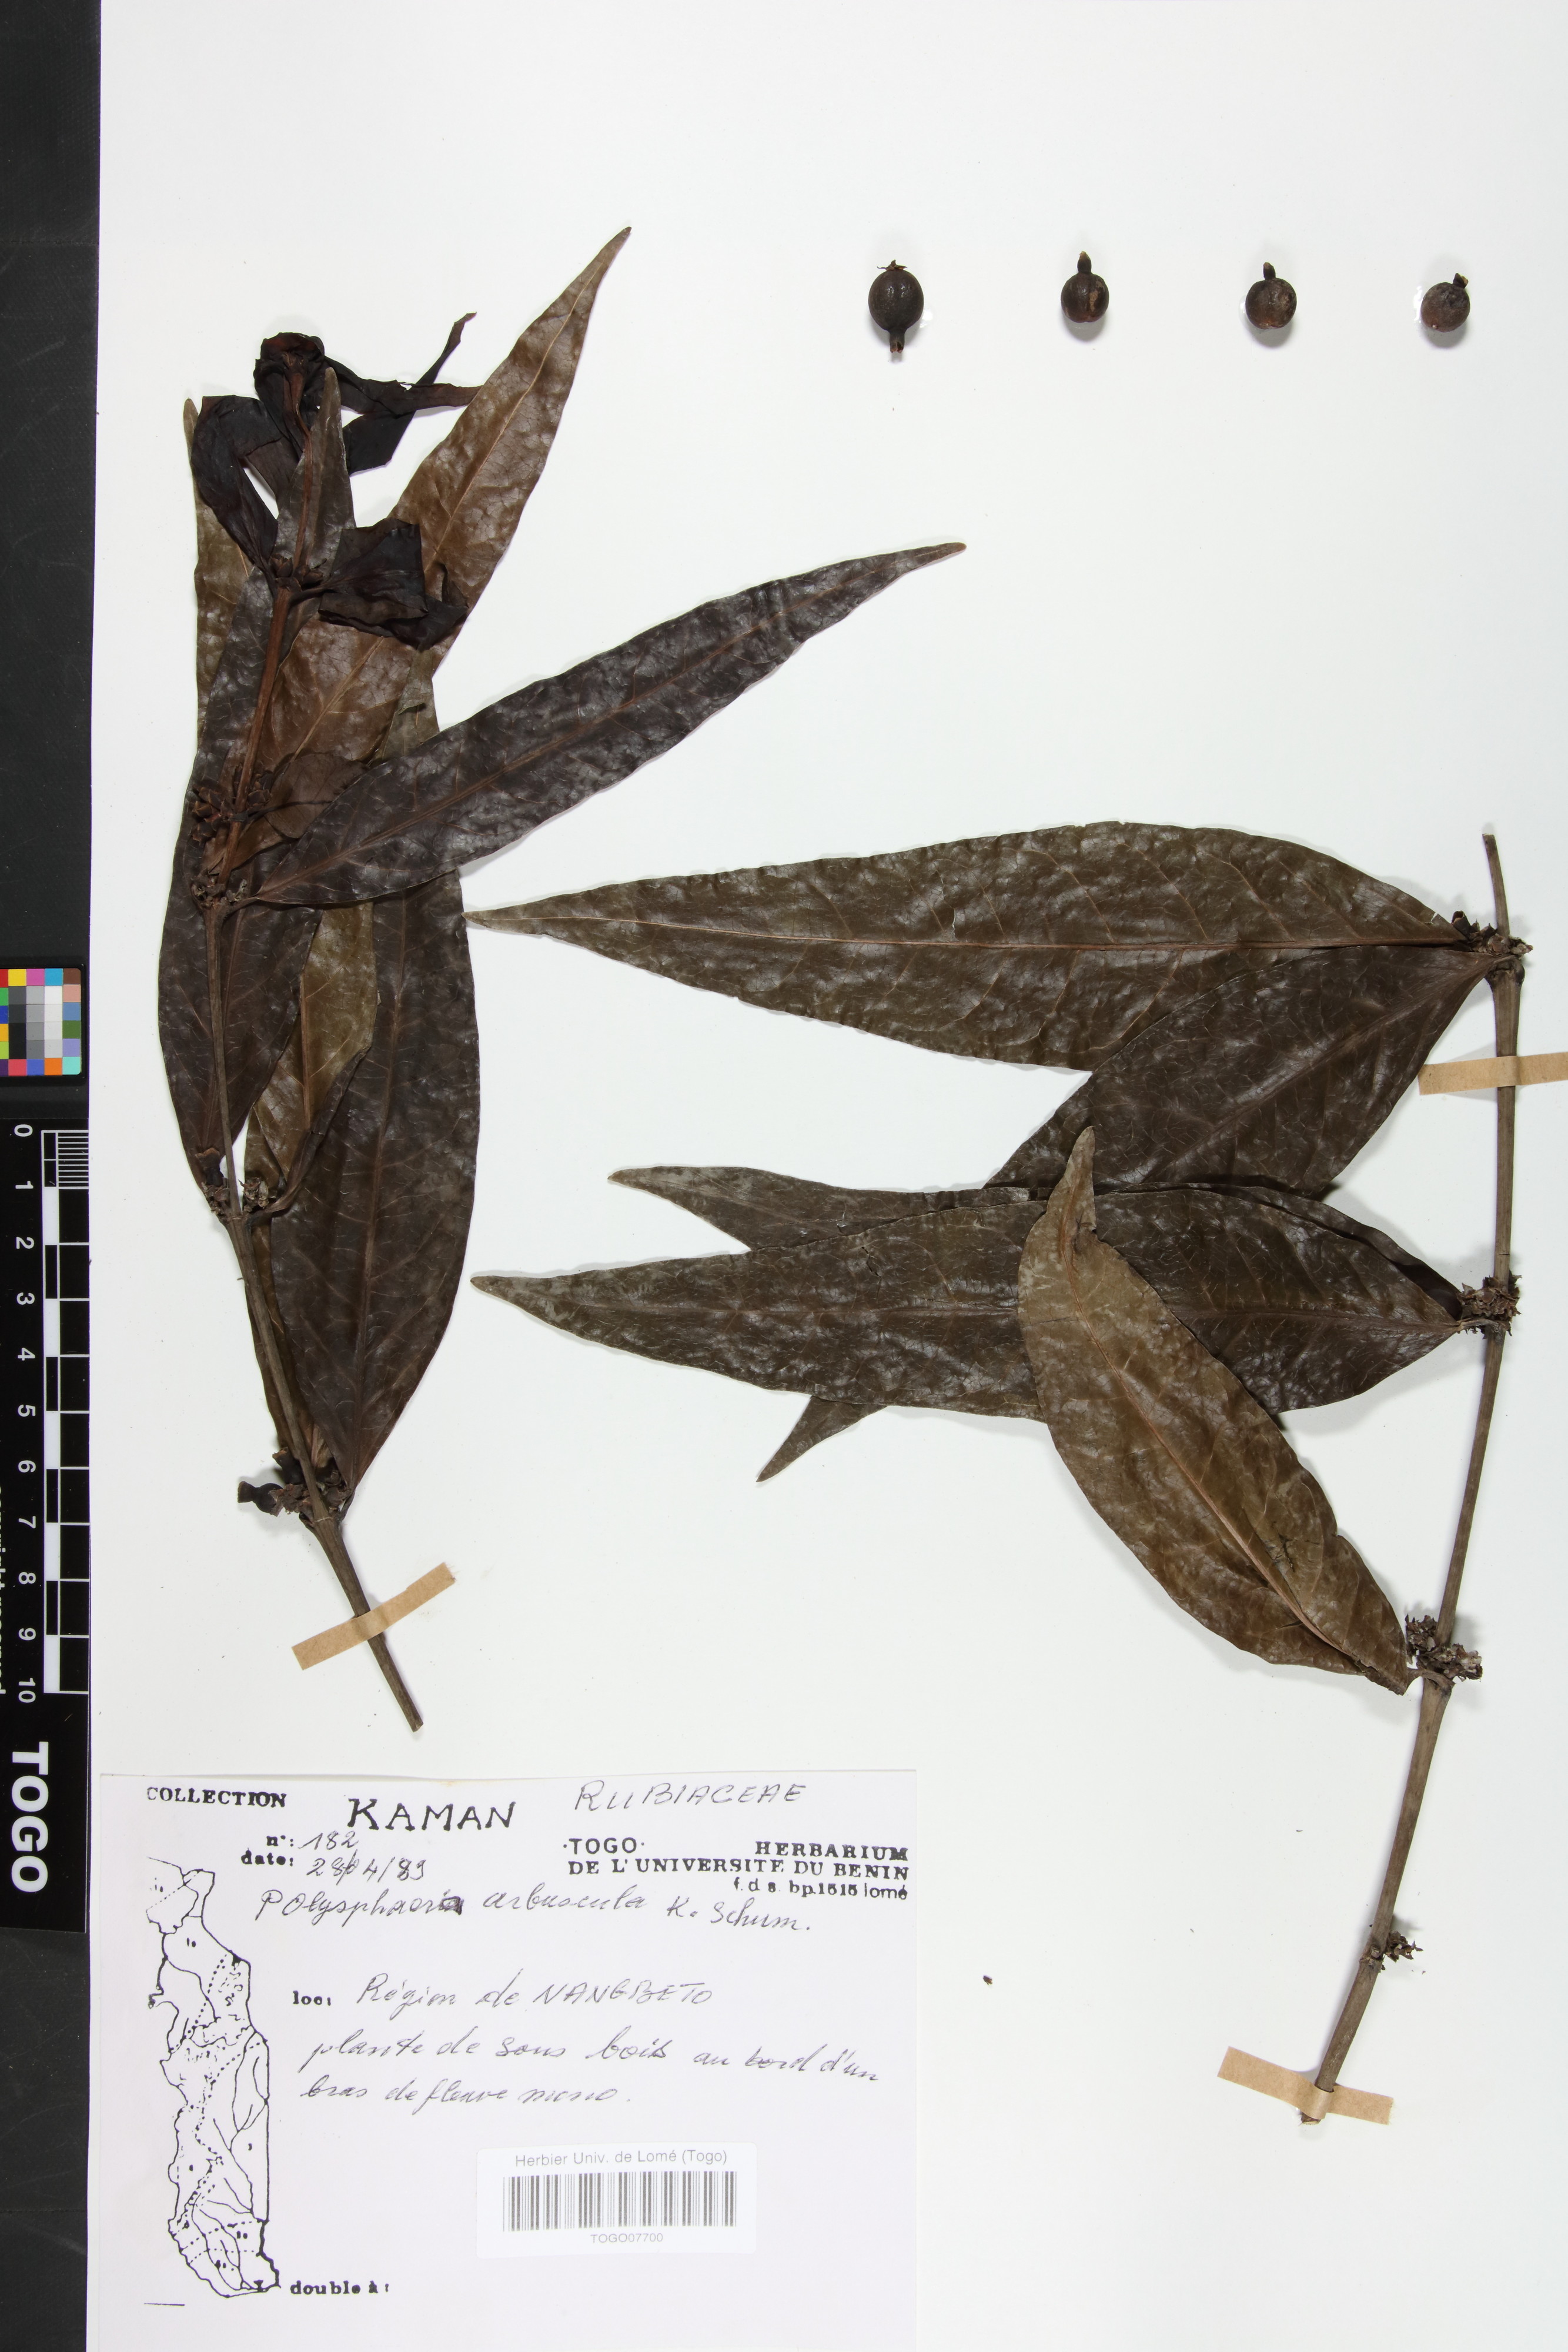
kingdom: Plantae
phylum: Tracheophyta
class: Magnoliopsida
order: Gentianales
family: Rubiaceae
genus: Polysphaeria
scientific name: Polysphaeria arbuscula
